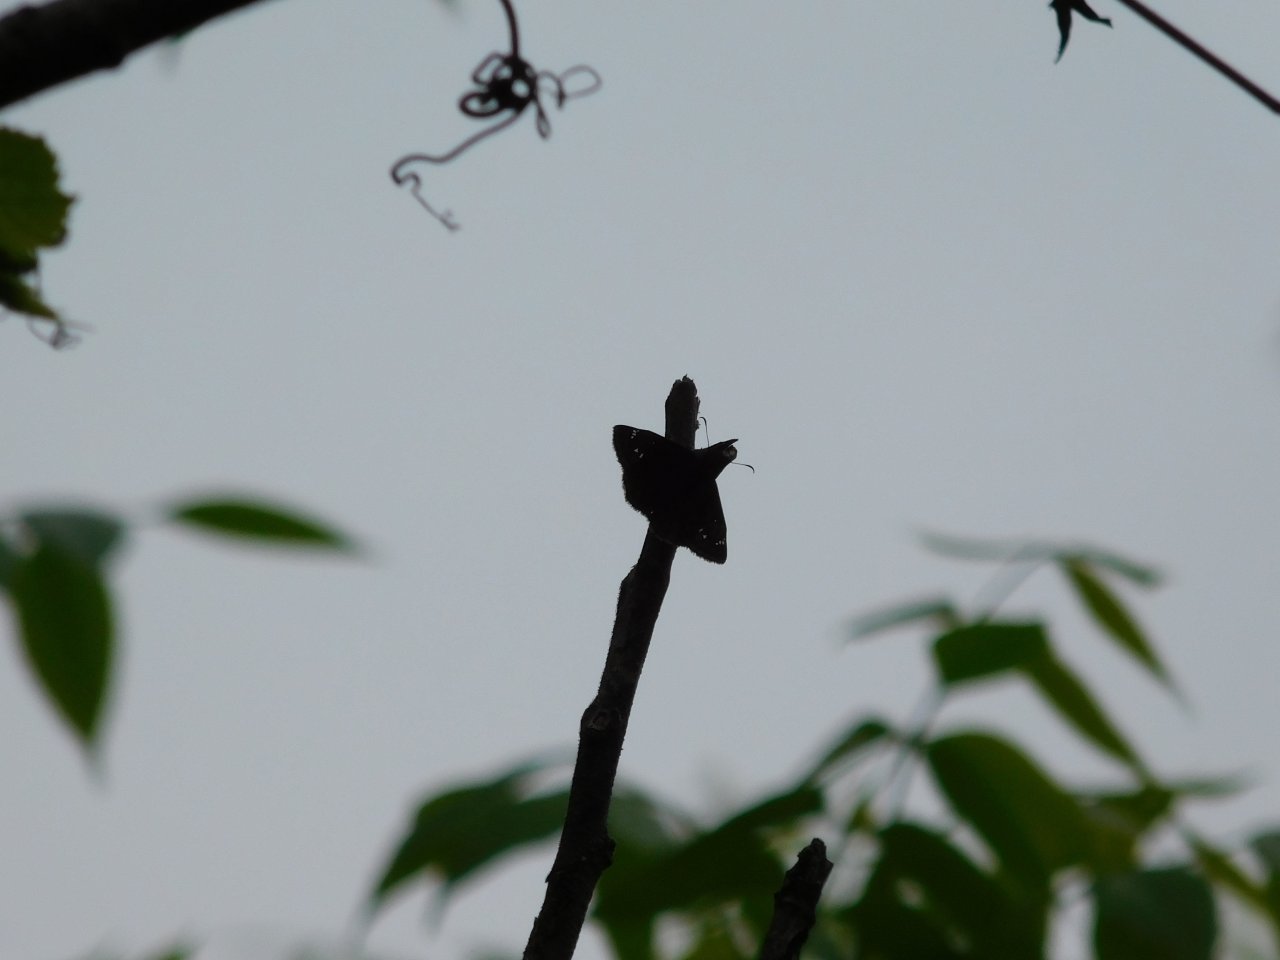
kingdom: Animalia
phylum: Arthropoda
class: Insecta
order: Lepidoptera
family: Hesperiidae
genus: Gesta
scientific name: Gesta
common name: Juvenal's Duskywing
